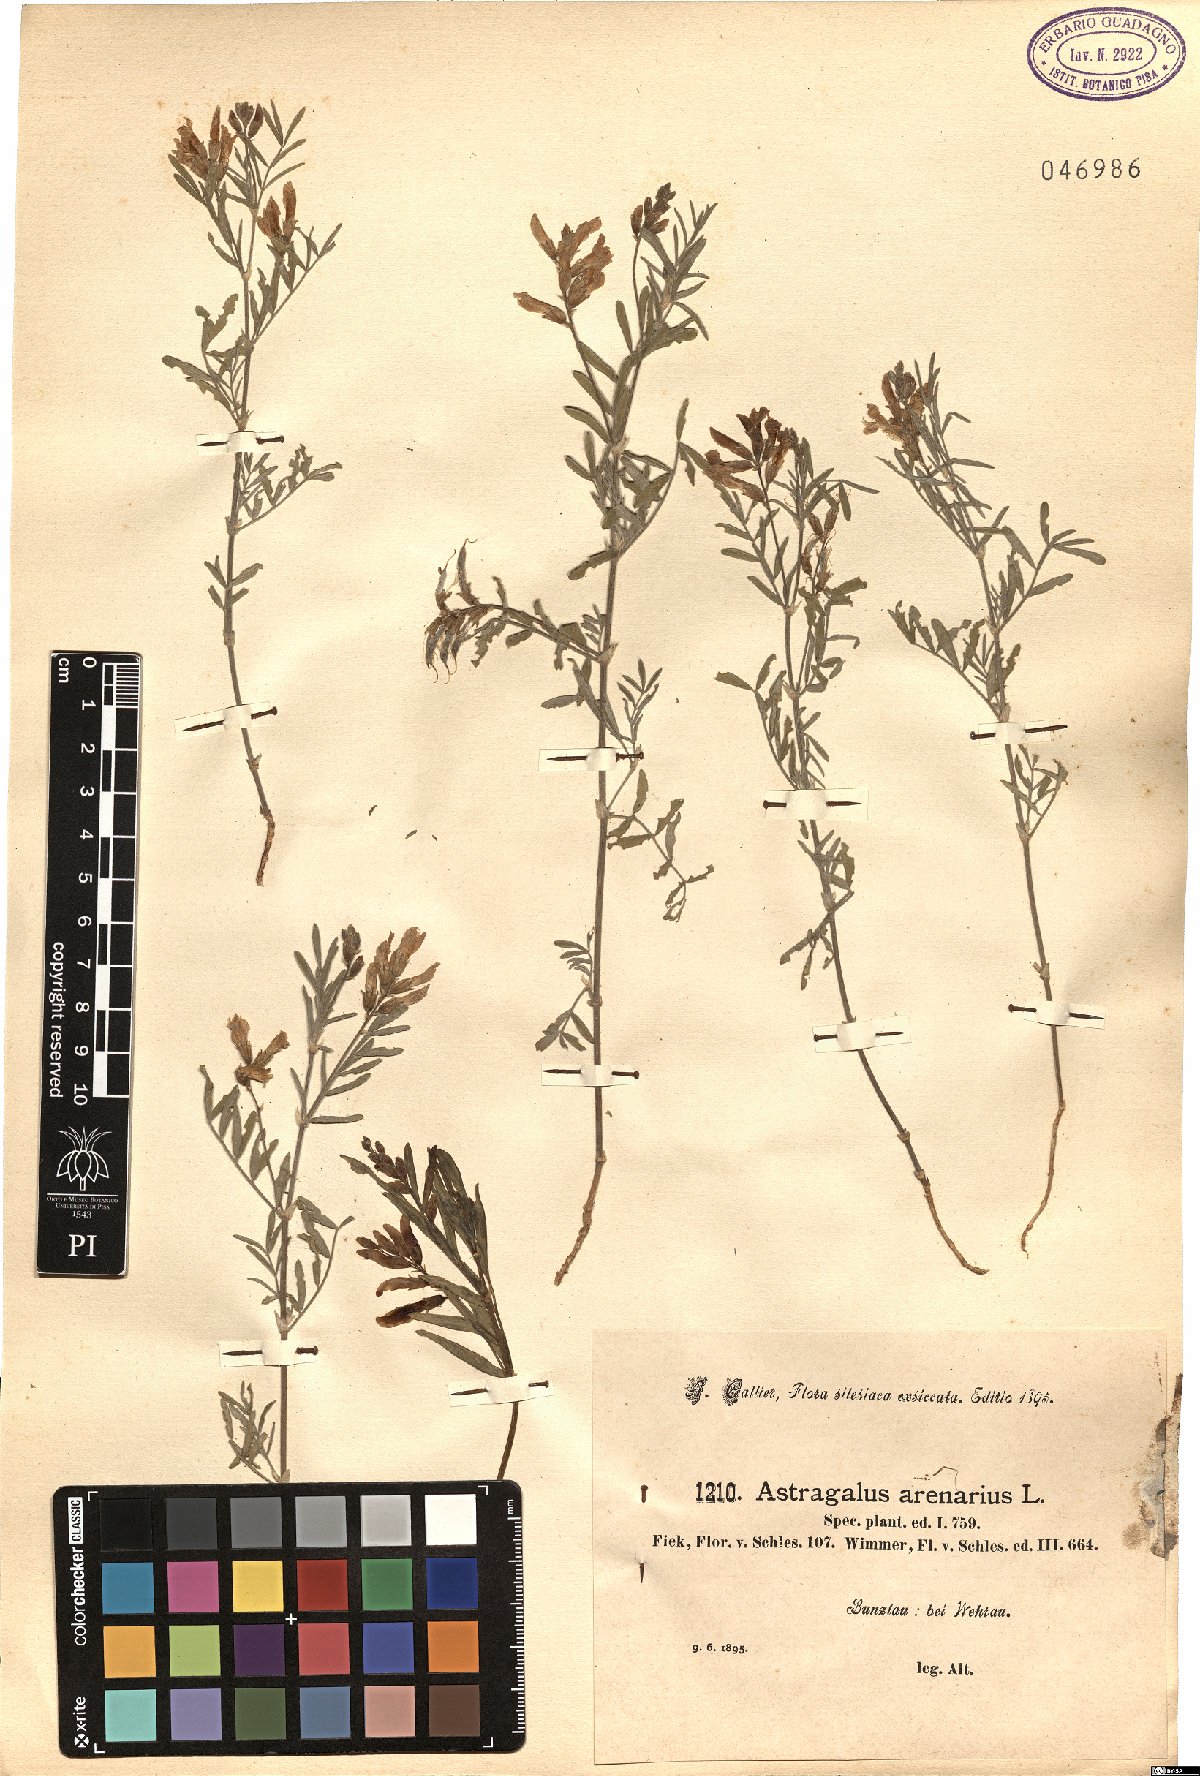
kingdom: Plantae
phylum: Tracheophyta
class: Magnoliopsida
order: Fabales
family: Fabaceae
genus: Astragalus
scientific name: Astragalus arenarius
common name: Arenarious milk-vetch
